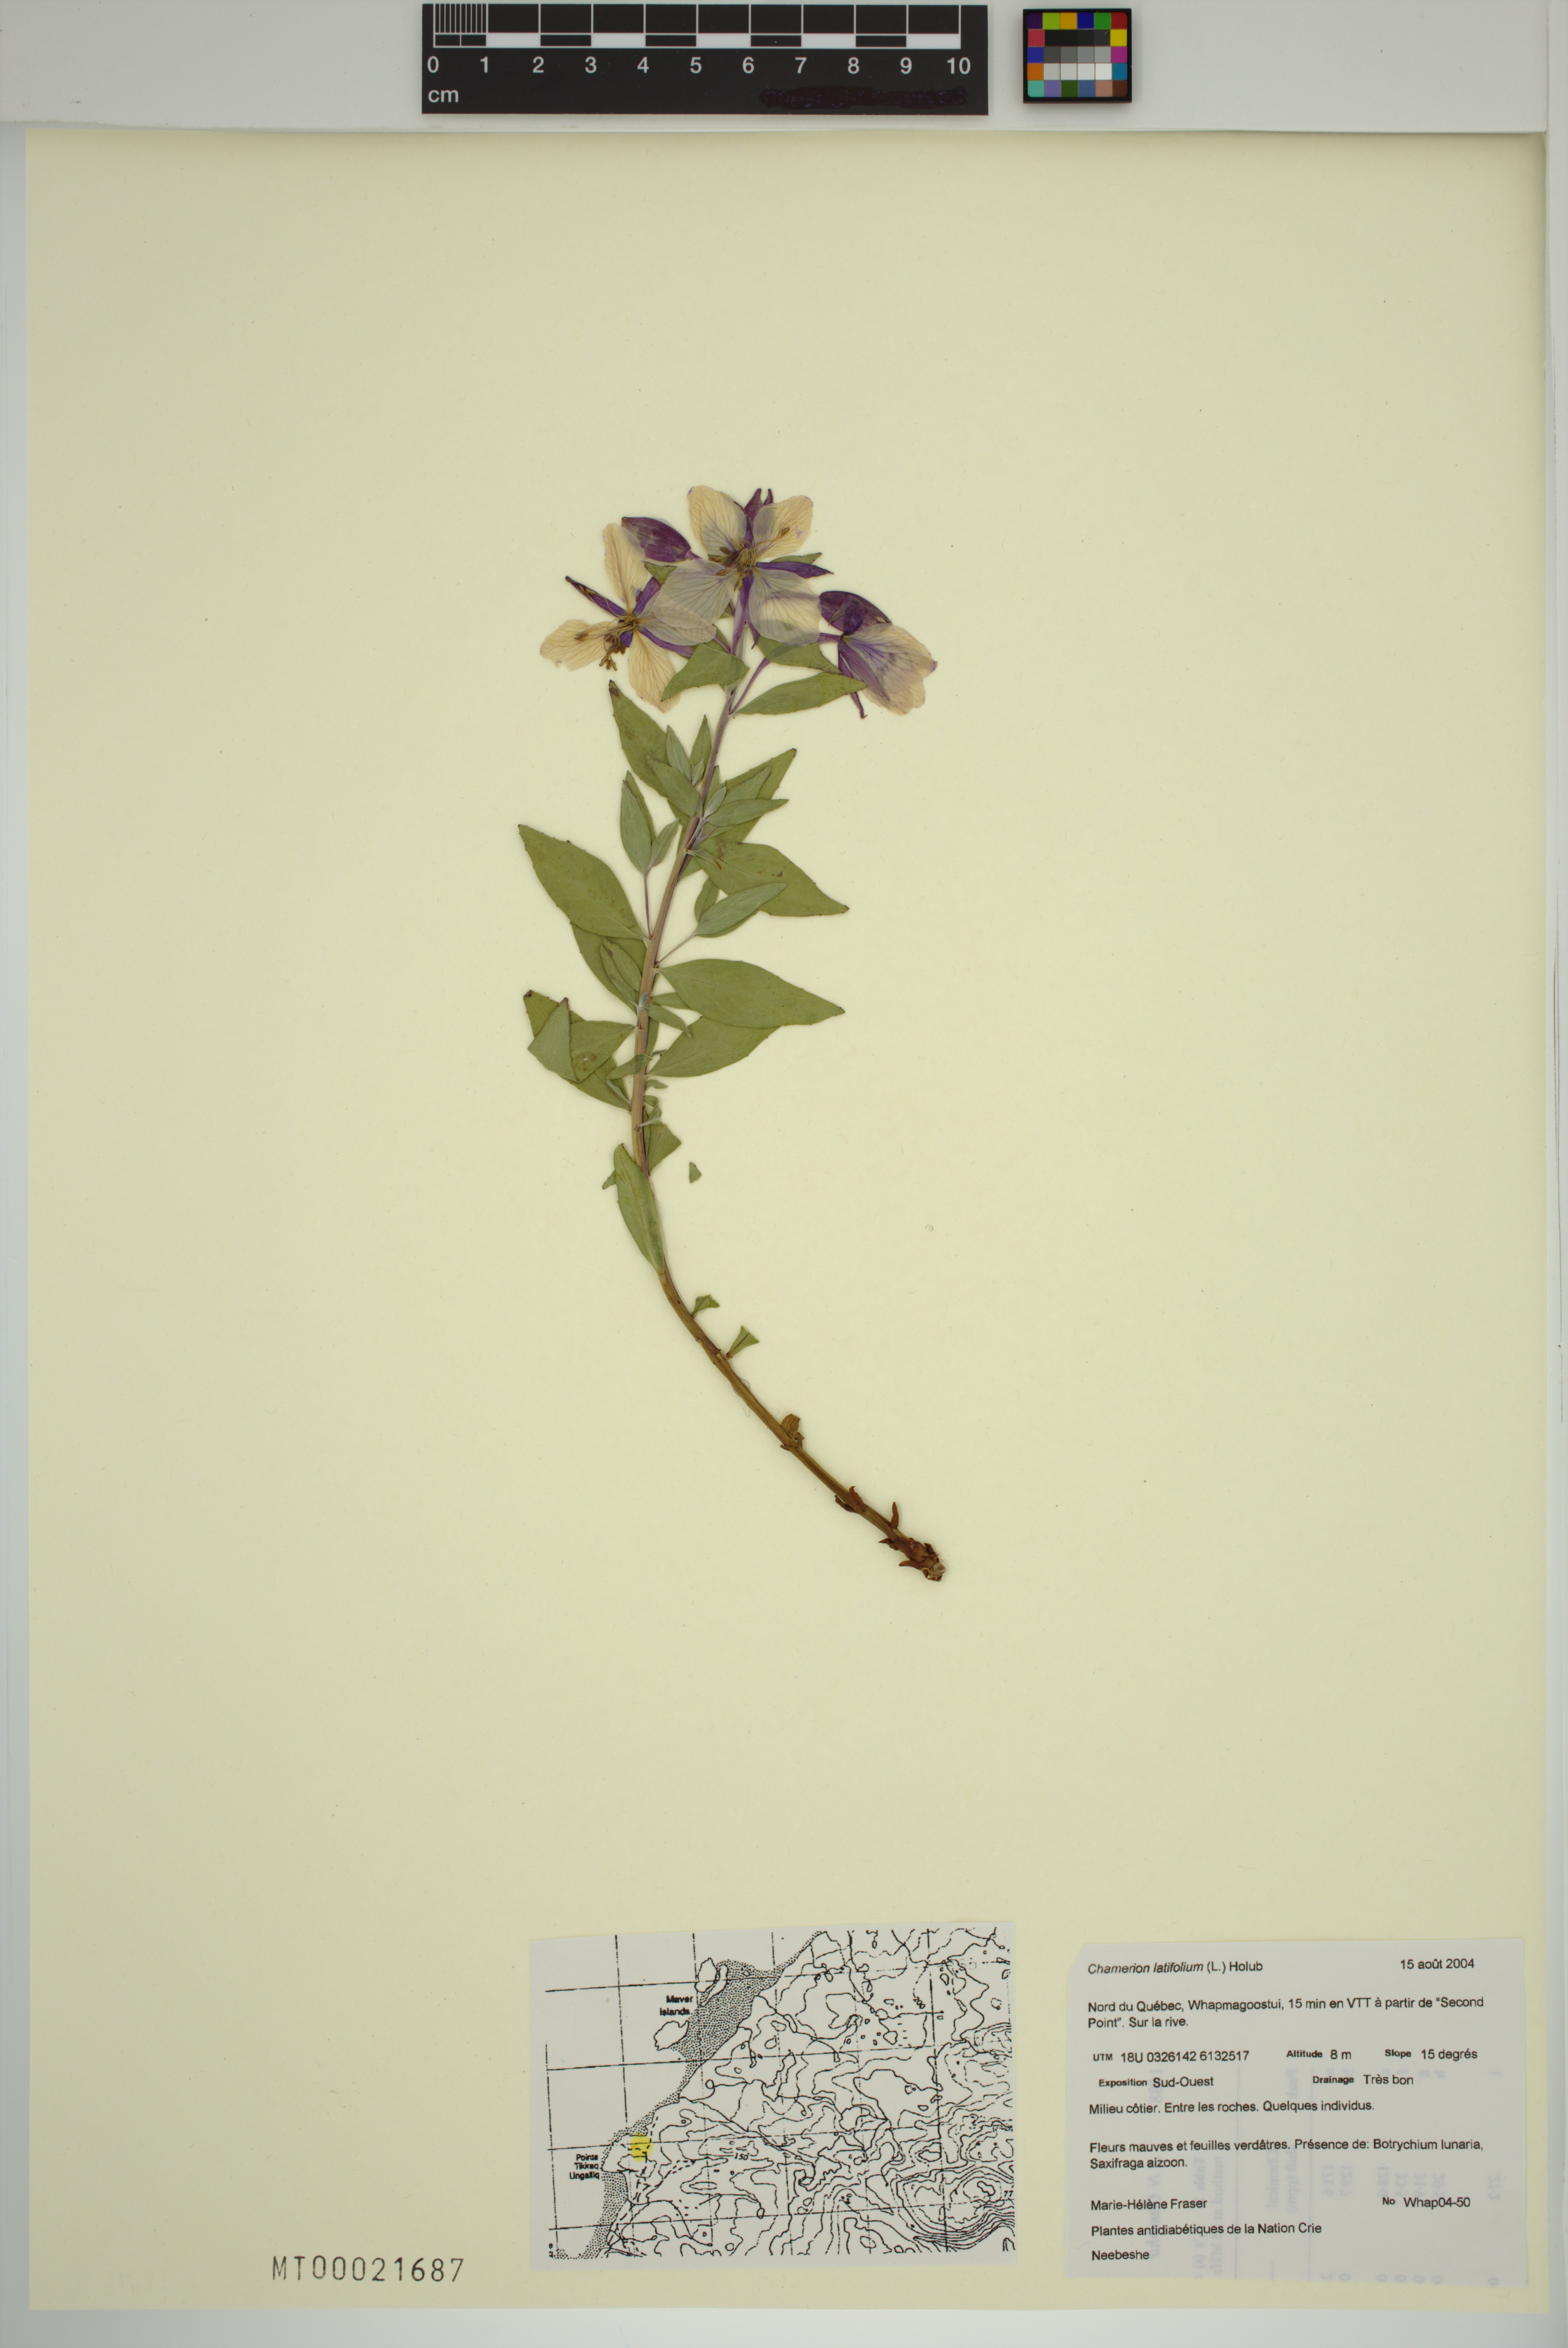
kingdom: Plantae
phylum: Tracheophyta
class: Magnoliopsida
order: Myrtales
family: Onagraceae
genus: Chamaenerion
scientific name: Chamaenerion latifolium
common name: Dwarf fireweed
